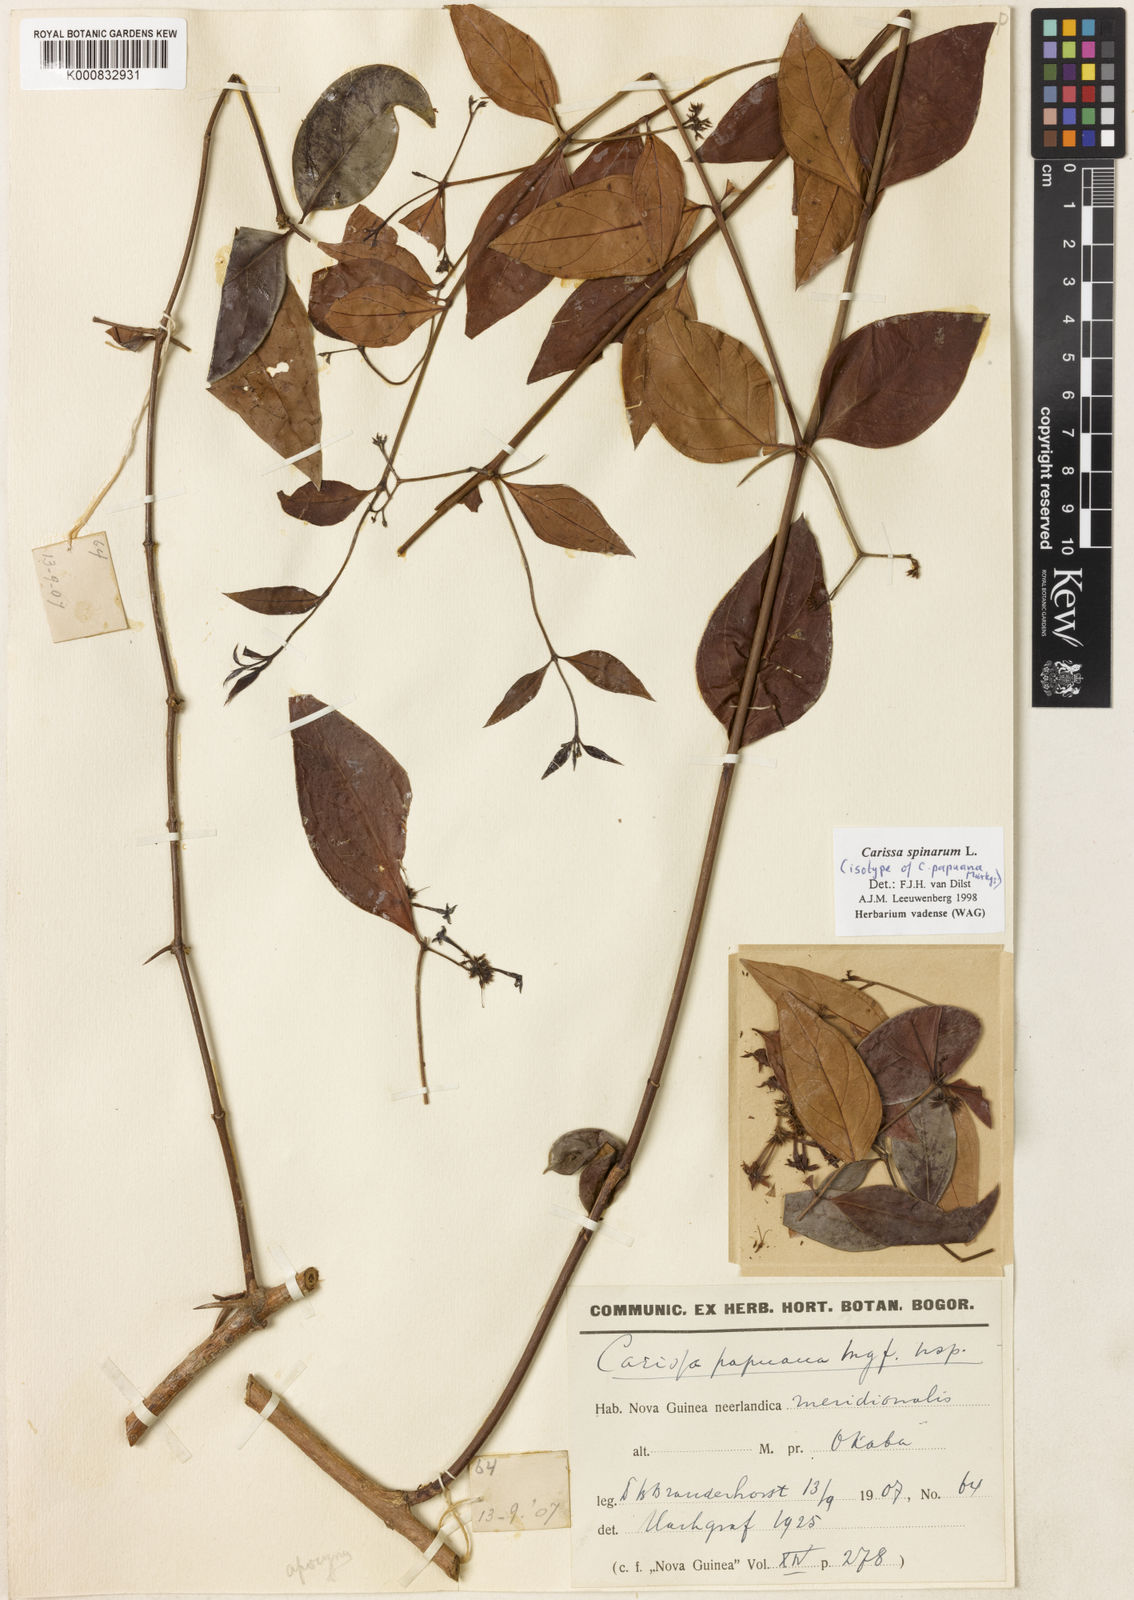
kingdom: Plantae
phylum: Tracheophyta
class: Magnoliopsida
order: Gentianales
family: Apocynaceae
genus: Carissa
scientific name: Carissa spinarum
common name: Egyptian carissa
